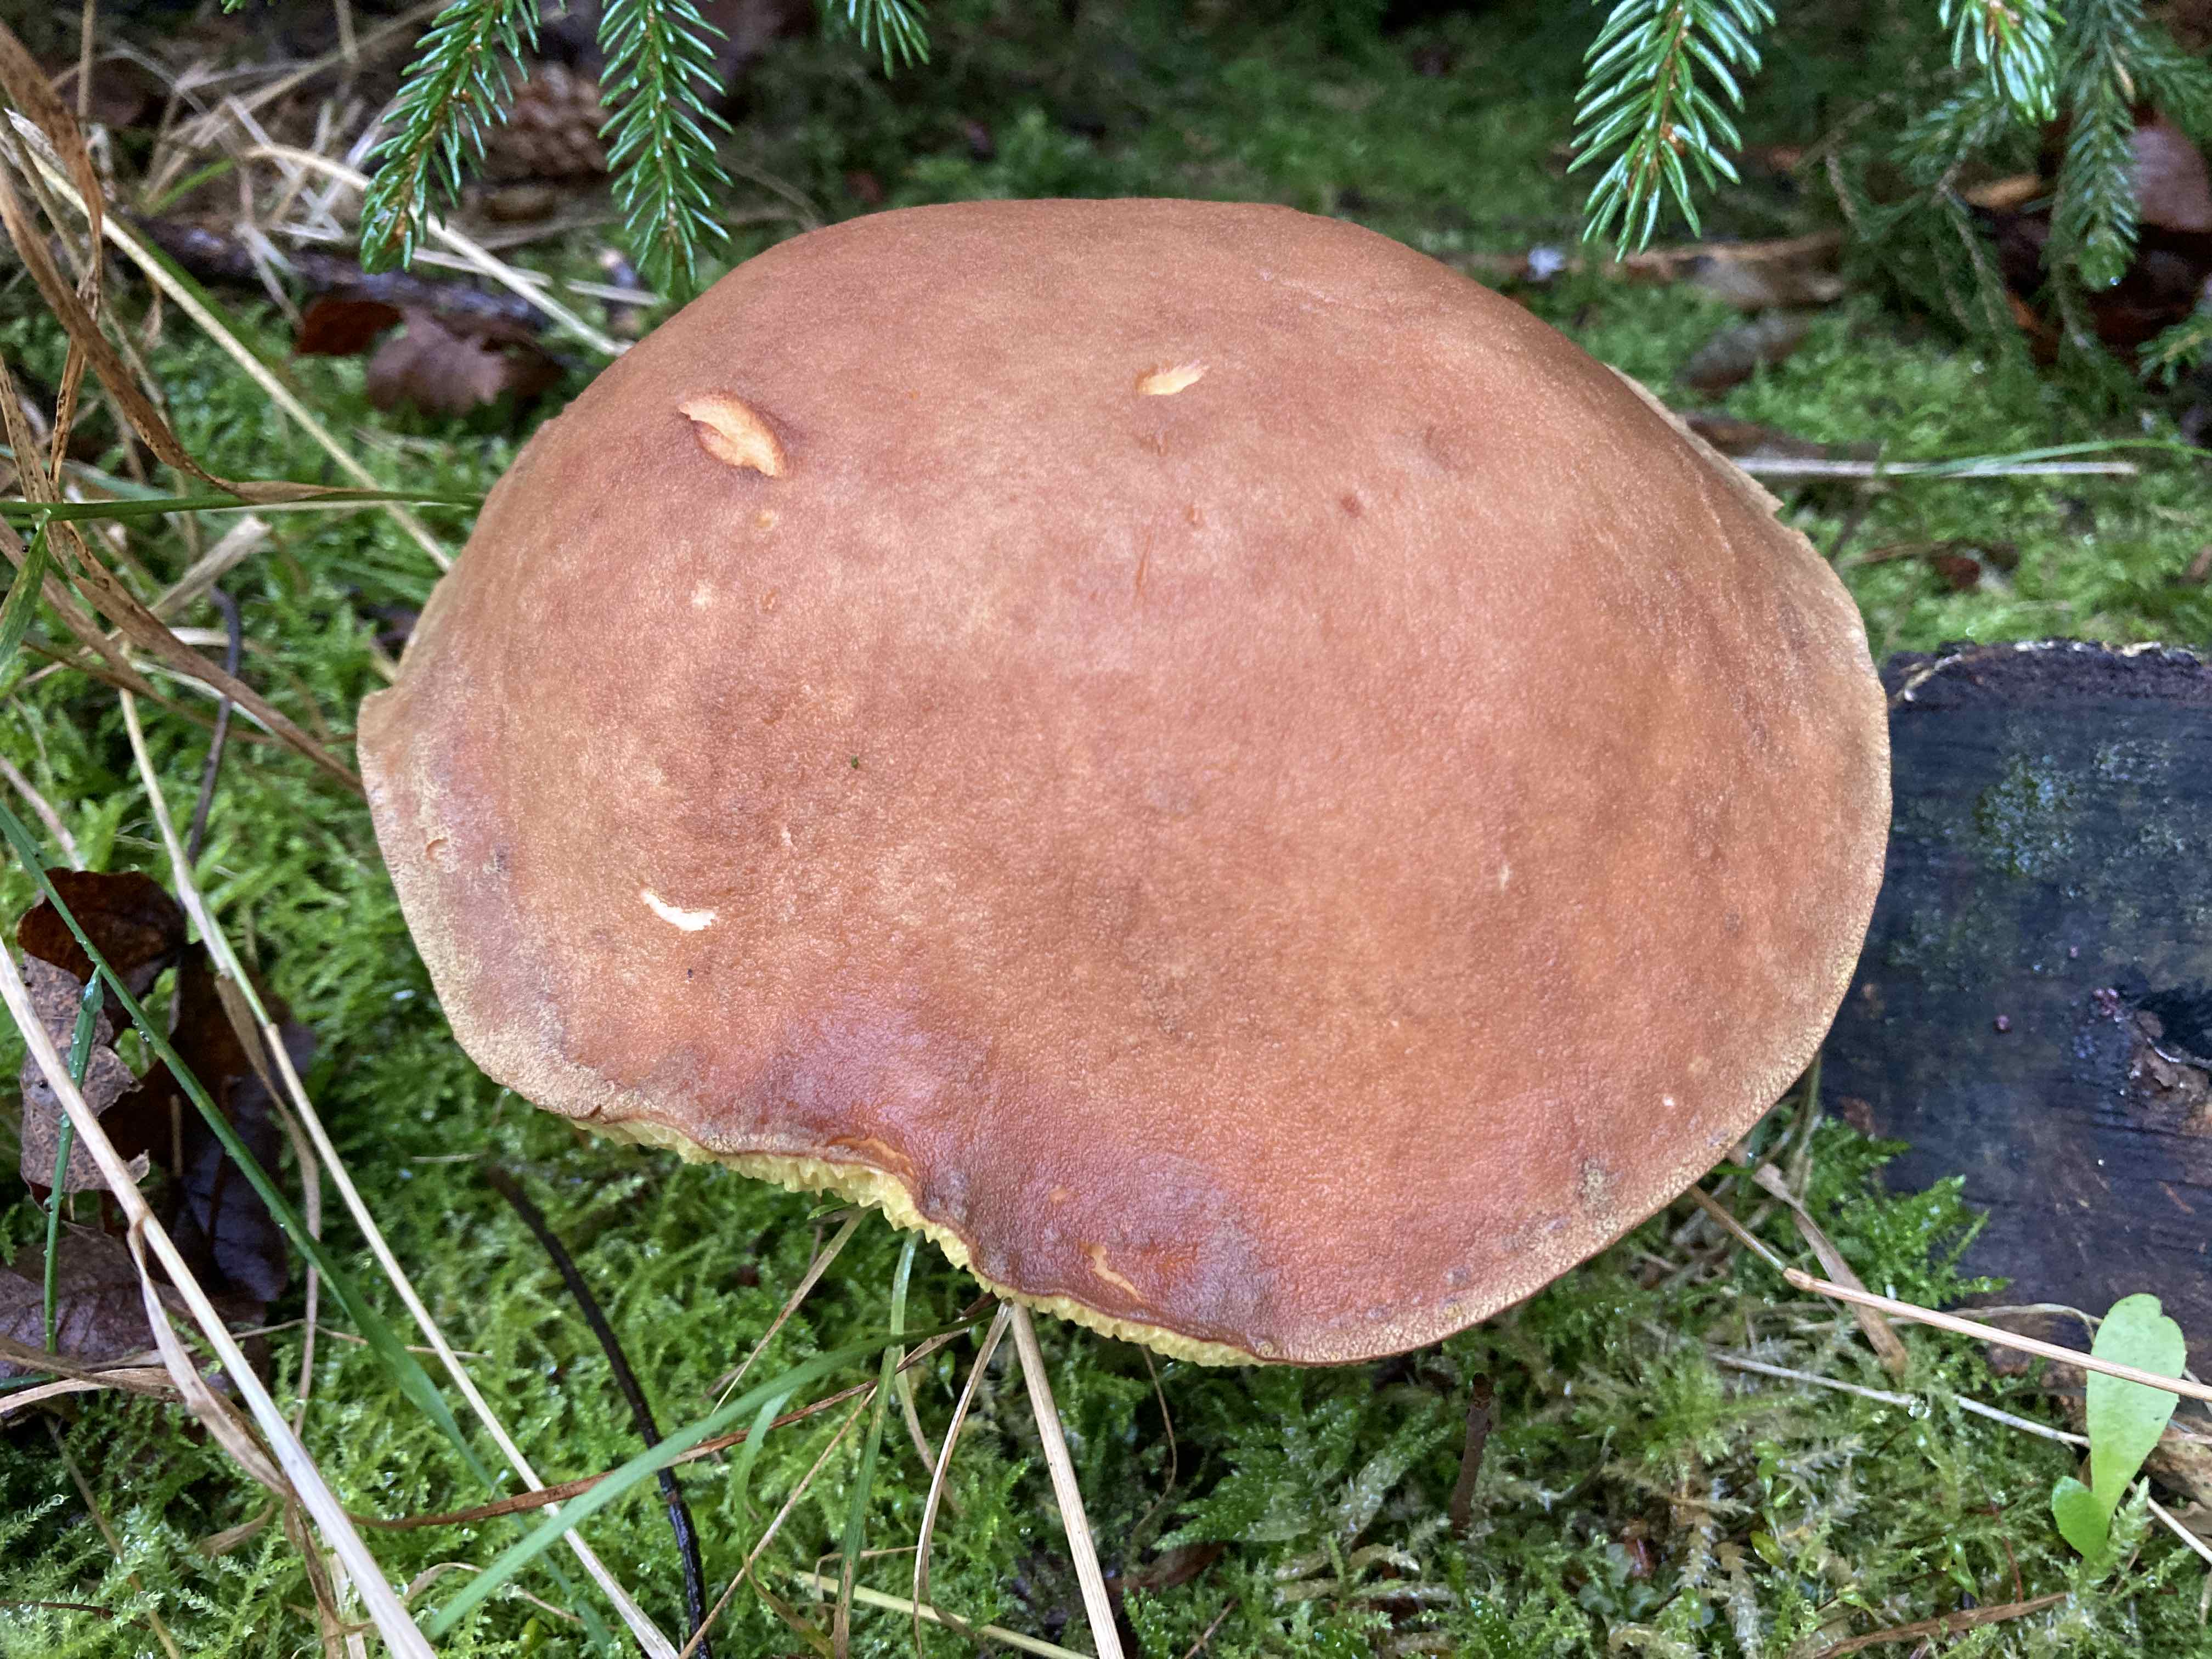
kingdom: Fungi
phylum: Basidiomycota
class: Agaricomycetes
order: Boletales
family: Boletaceae
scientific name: Boletaceae
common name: rørhatfamilien
